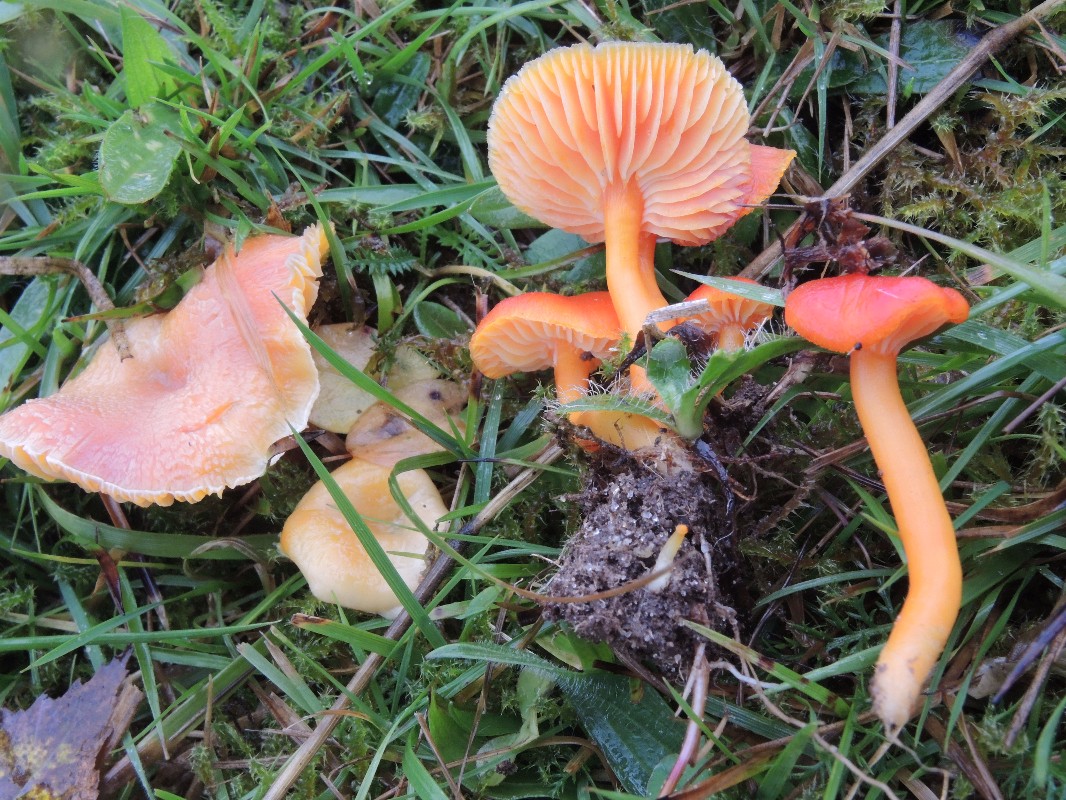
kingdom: Fungi
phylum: Basidiomycota
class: Agaricomycetes
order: Agaricales
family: Hygrophoraceae
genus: Hygrocybe
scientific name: Hygrocybe miniata
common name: mønje-vokshat
